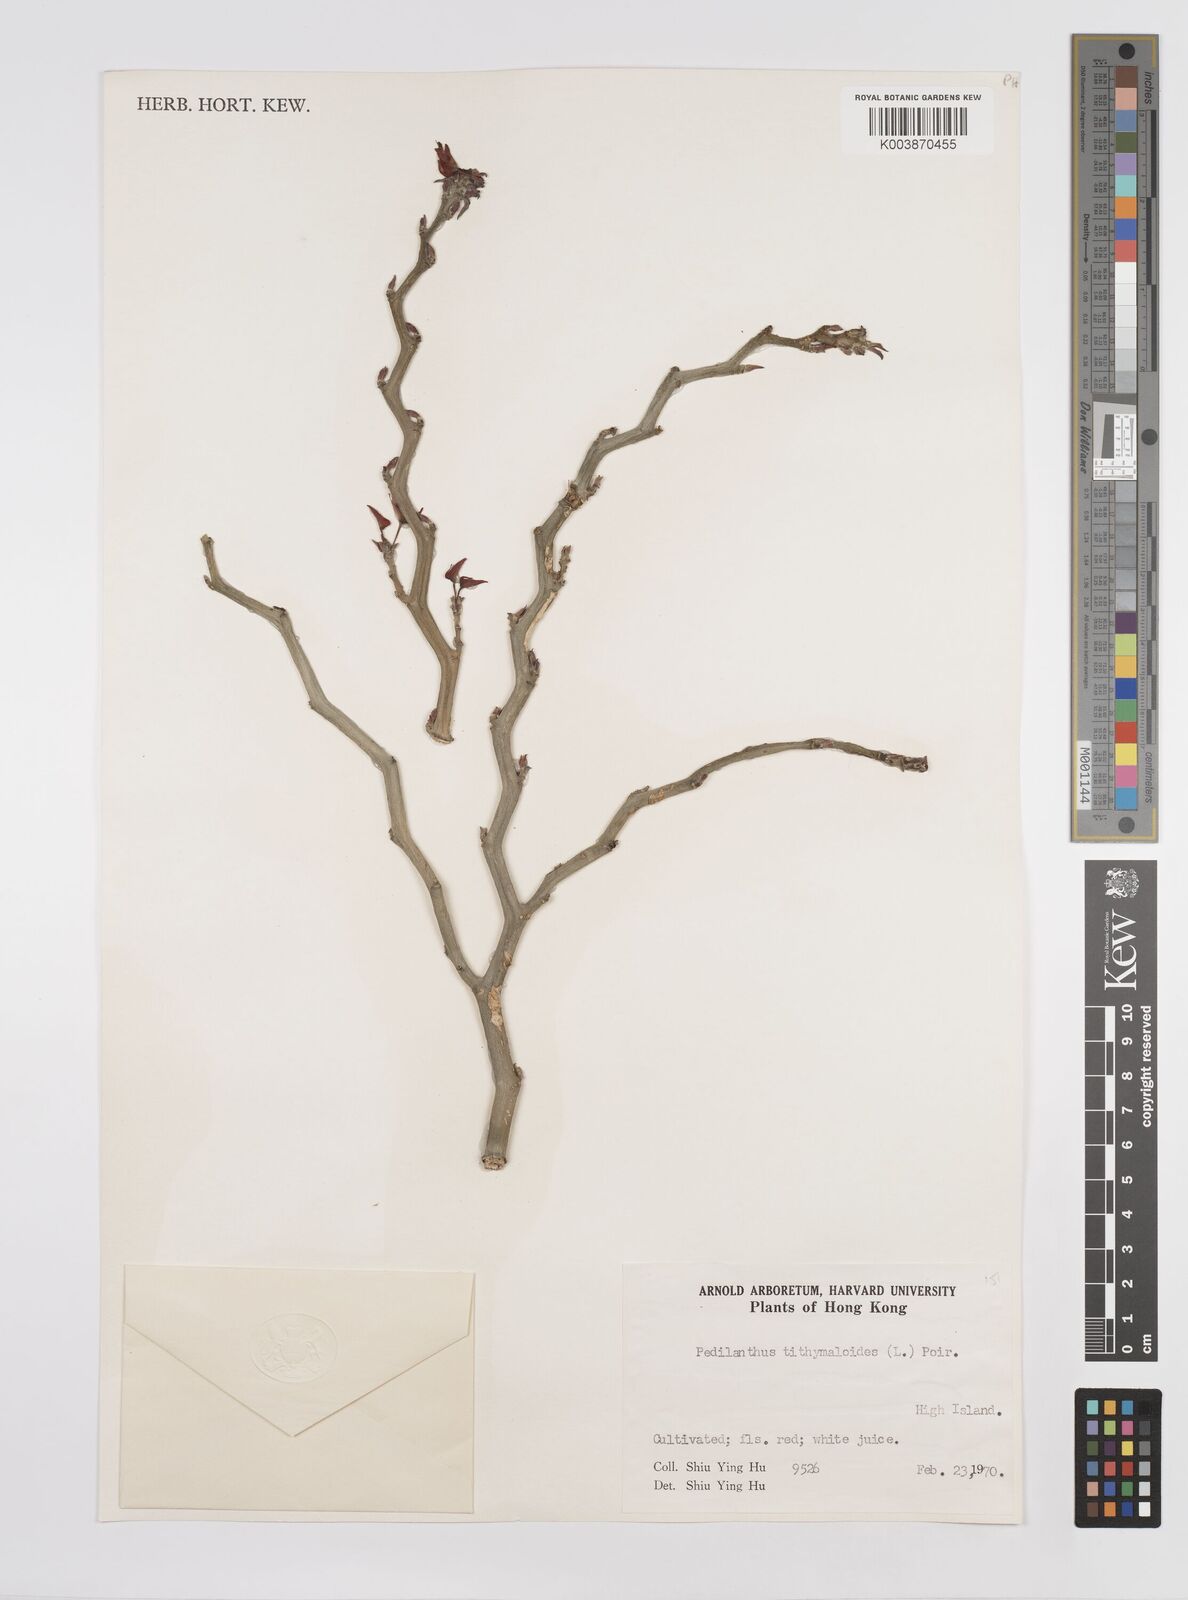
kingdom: Plantae
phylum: Tracheophyta
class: Magnoliopsida
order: Malpighiales
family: Euphorbiaceae
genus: Euphorbia
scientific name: Euphorbia tithymaloides
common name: Slipperplant
